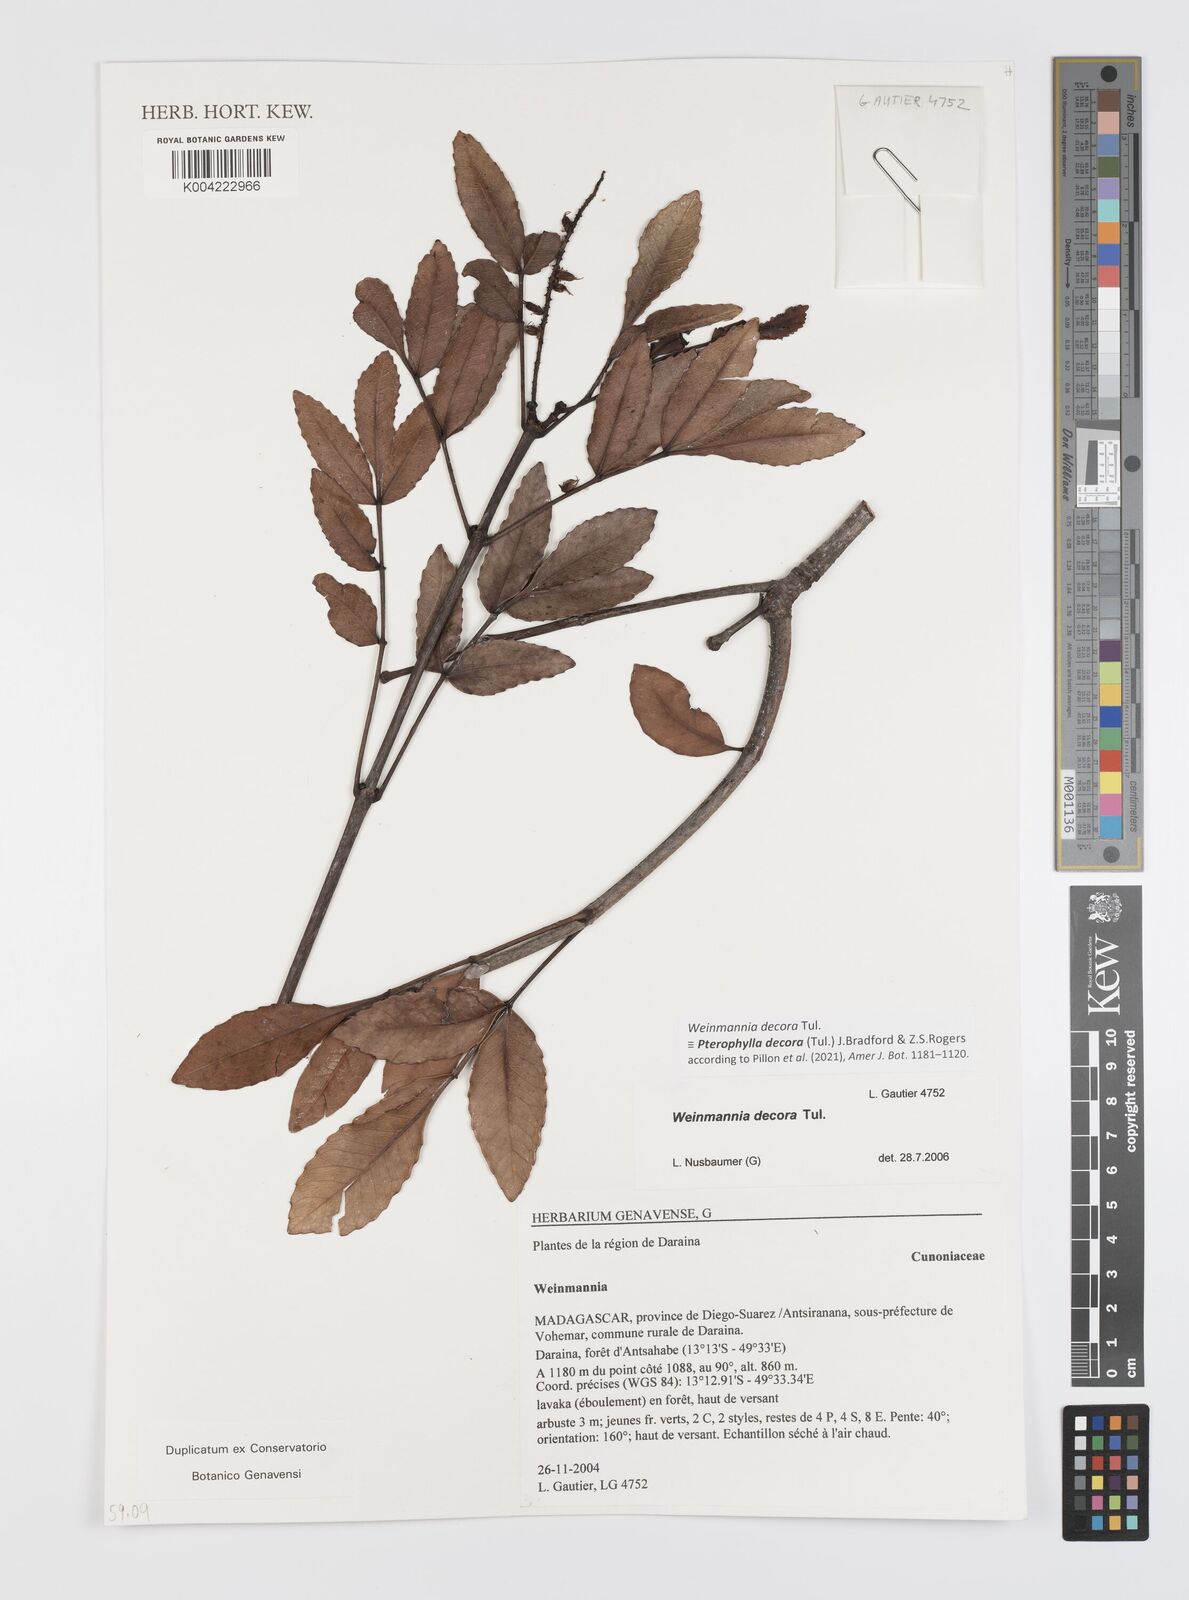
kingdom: Plantae
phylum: Tracheophyta
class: Magnoliopsida
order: Oxalidales
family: Cunoniaceae
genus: Pterophylla
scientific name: Pterophylla decora
